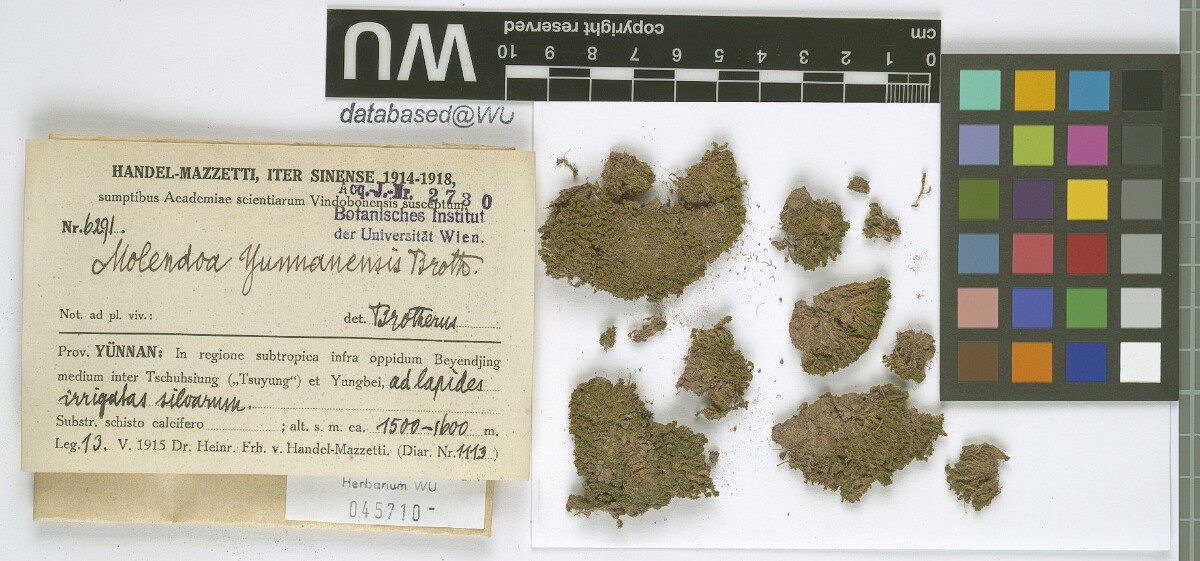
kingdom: Plantae
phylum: Bryophyta
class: Bryopsida
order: Pottiales
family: Pottiaceae
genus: Molendoa
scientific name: Molendoa sendtneriana
